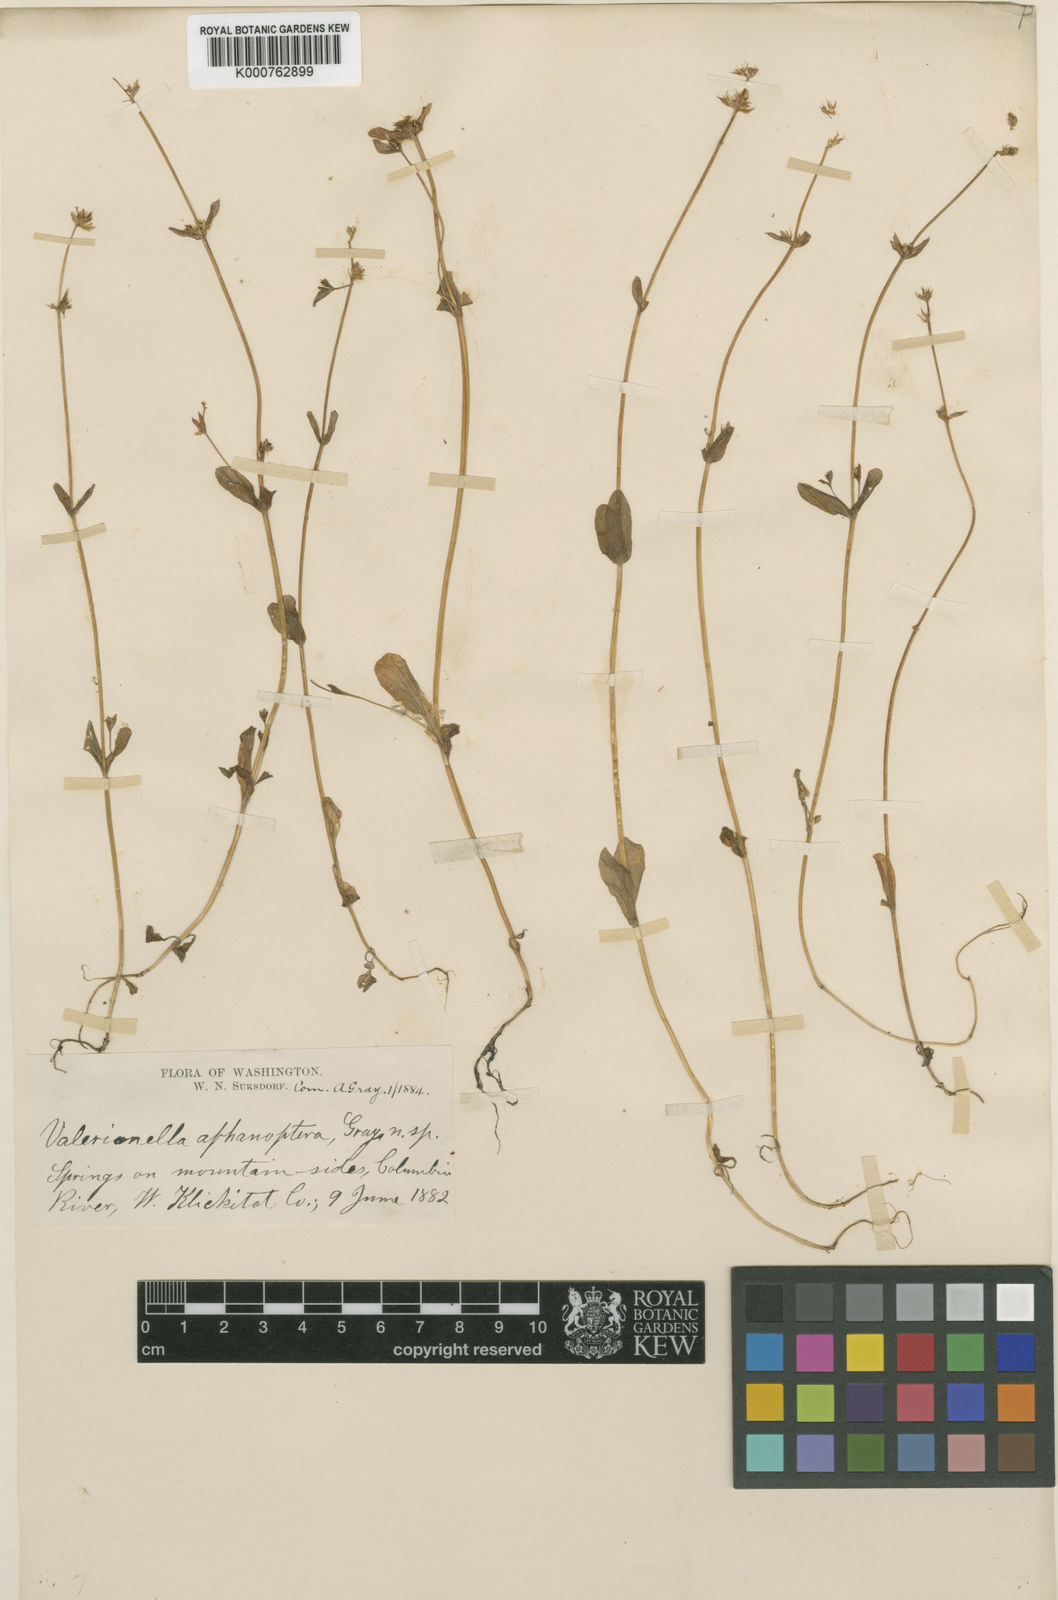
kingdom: Plantae
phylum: Tracheophyta
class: Magnoliopsida
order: Dipsacales
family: Caprifoliaceae
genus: Plectritis
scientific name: Plectritis brachystemon
